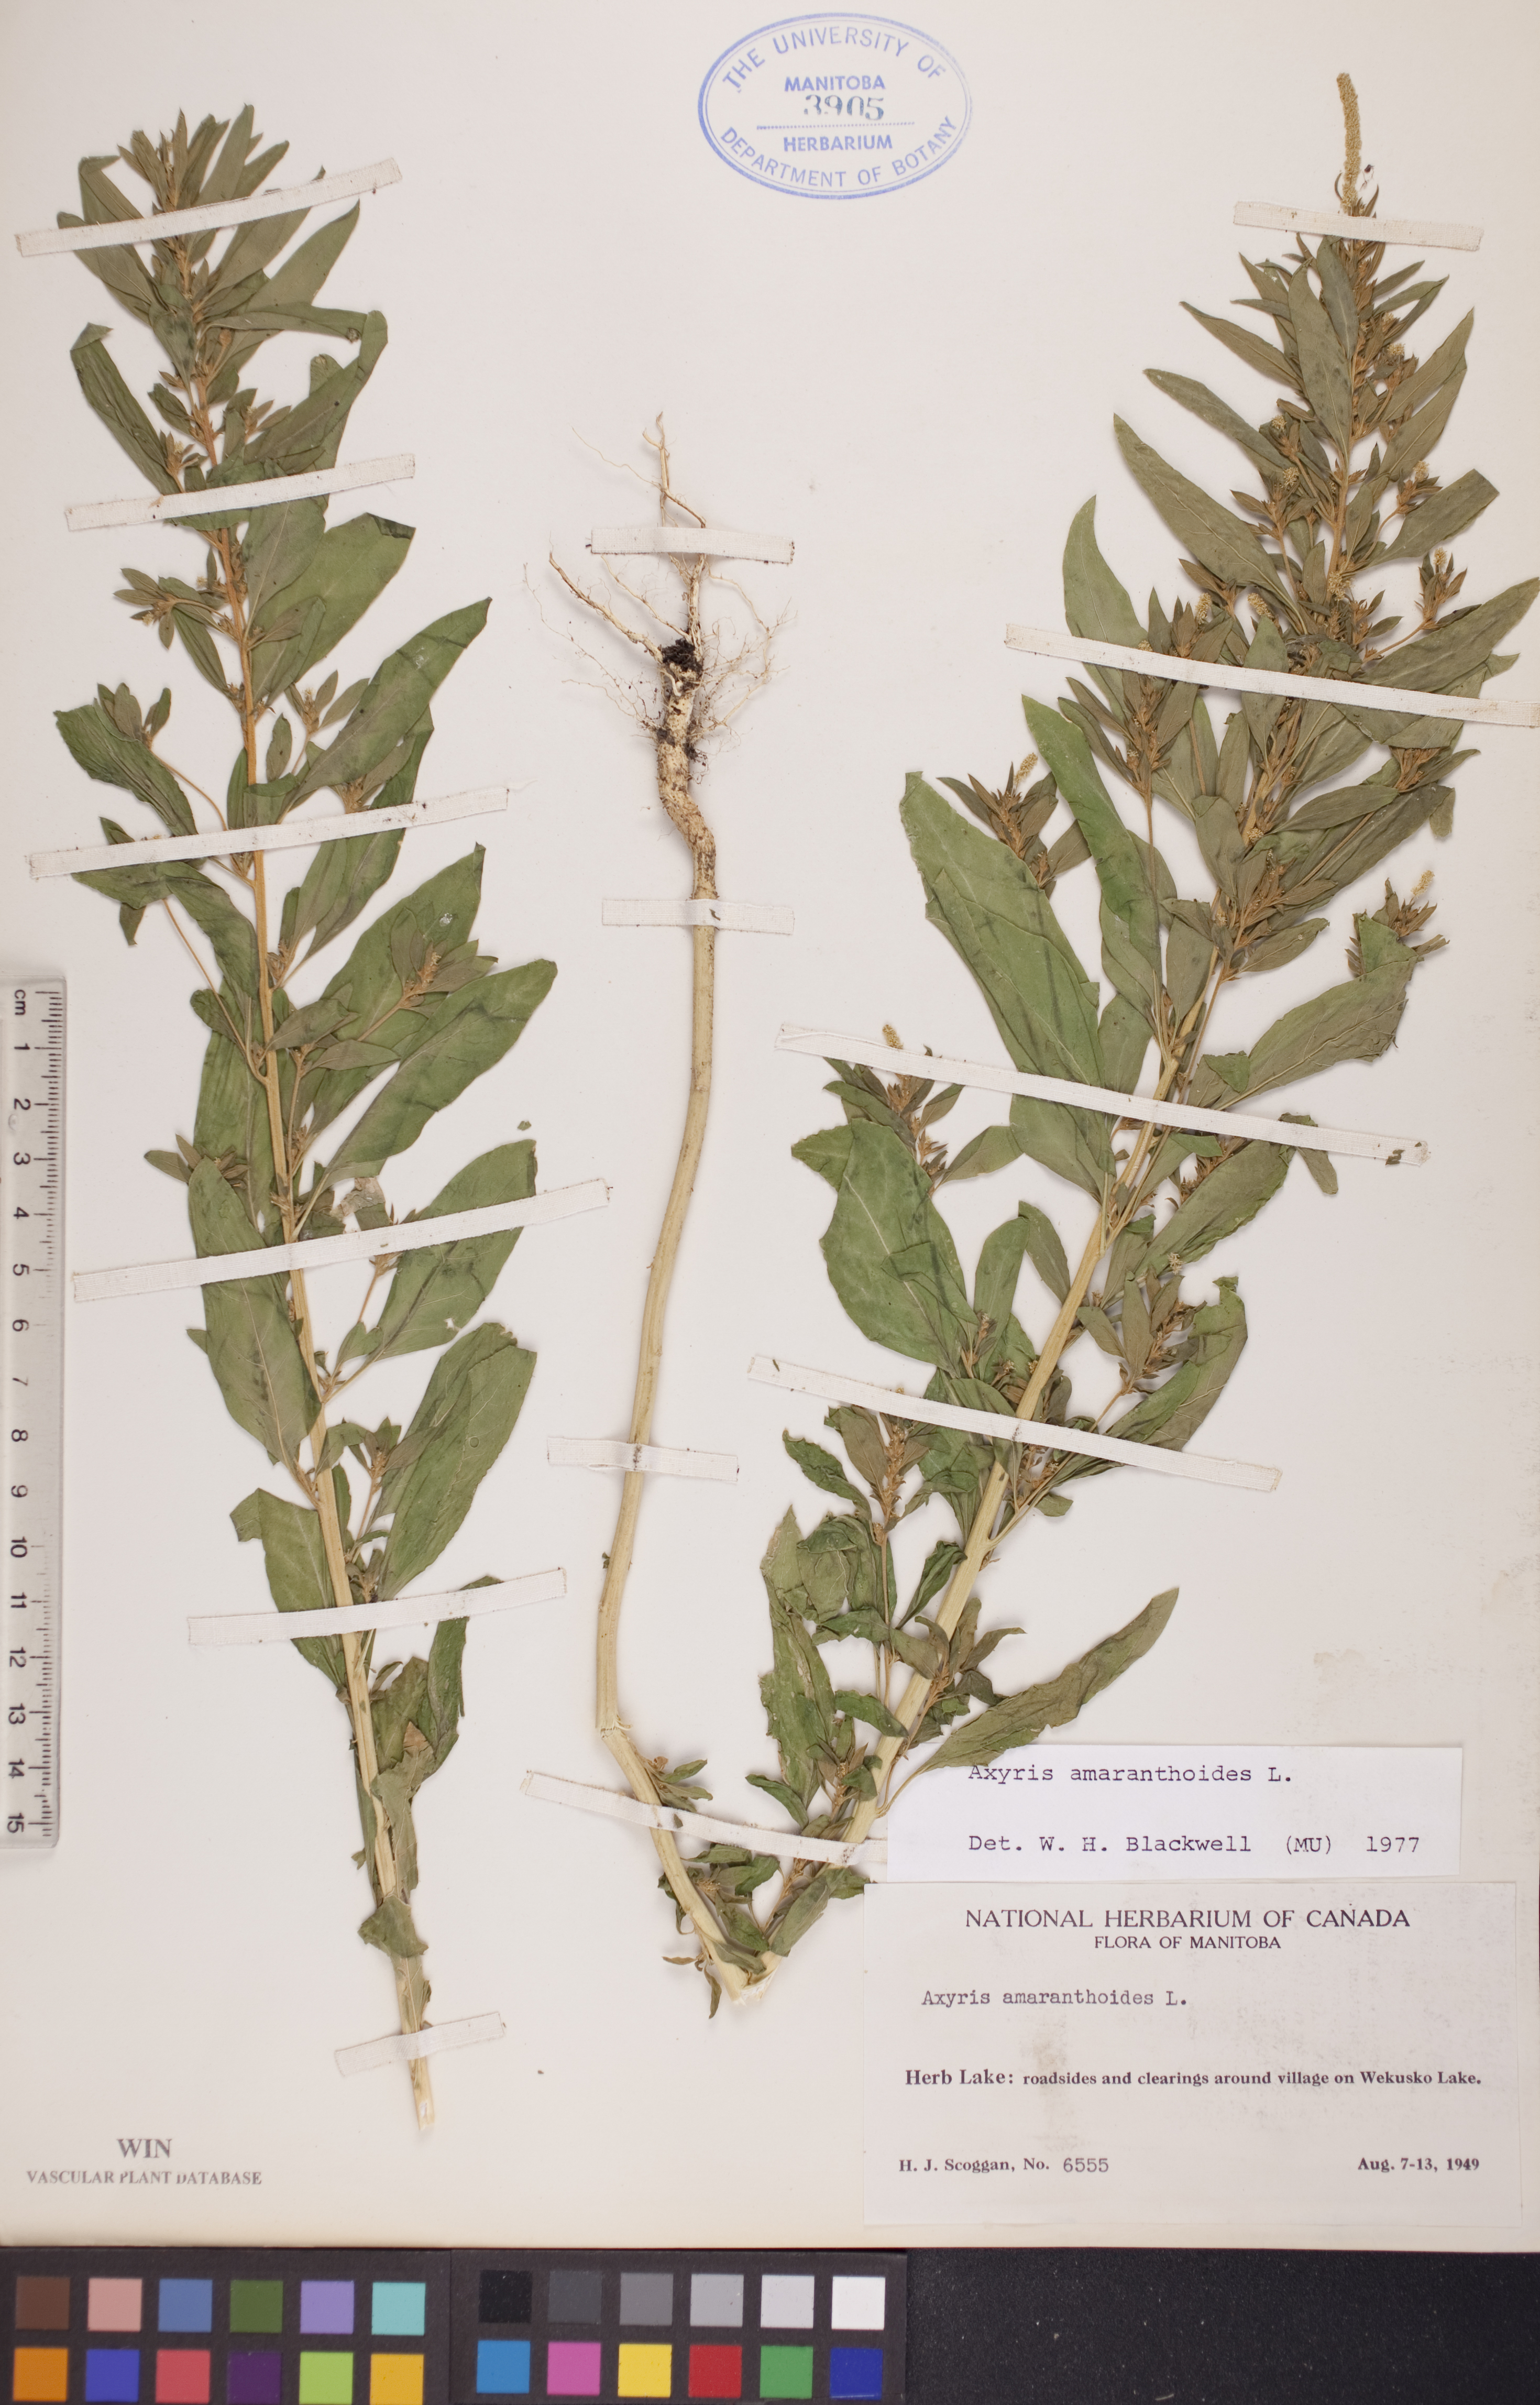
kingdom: Plantae
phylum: Tracheophyta
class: Magnoliopsida
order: Caryophyllales
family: Amaranthaceae
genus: Axyris
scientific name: Axyris amaranthoides
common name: Russian pigweed
